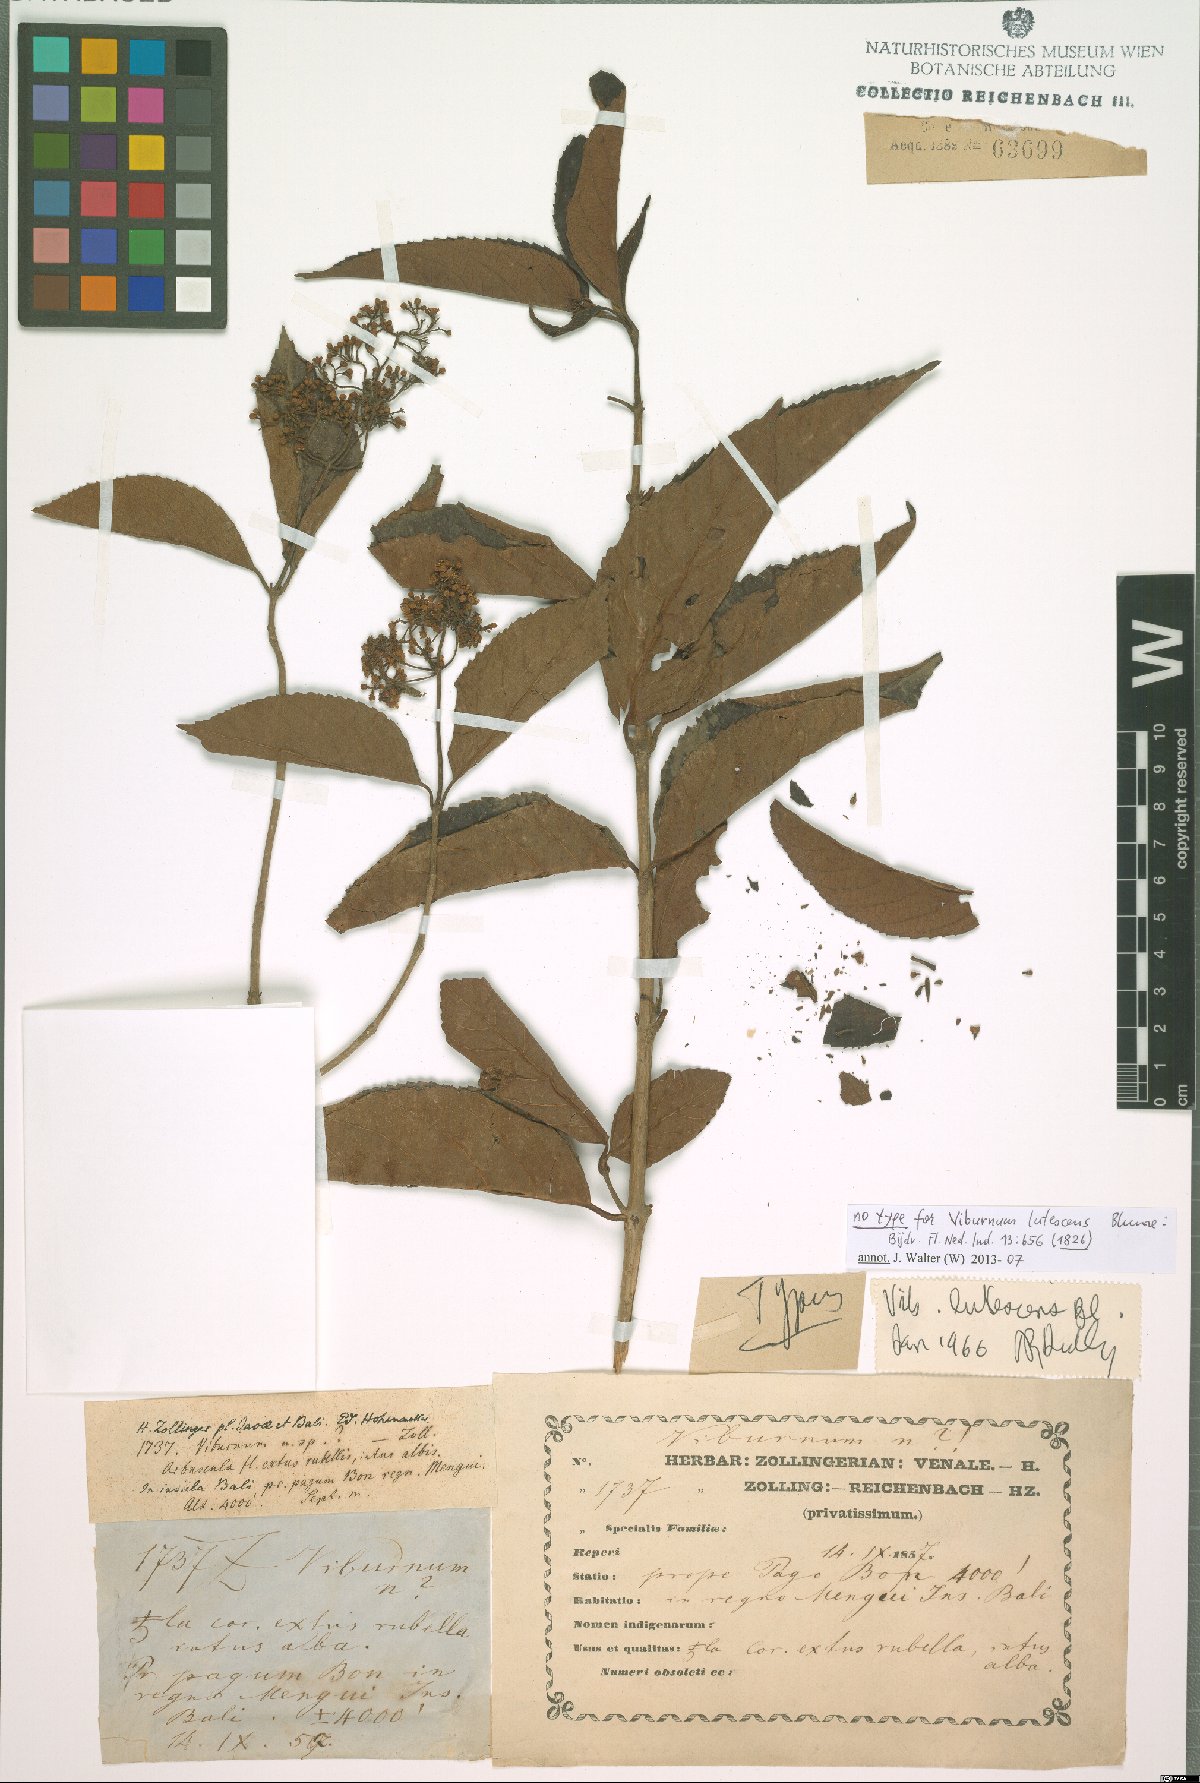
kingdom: Plantae
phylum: Tracheophyta
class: Magnoliopsida
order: Dipsacales
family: Viburnaceae
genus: Viburnum
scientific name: Viburnum lutescens
